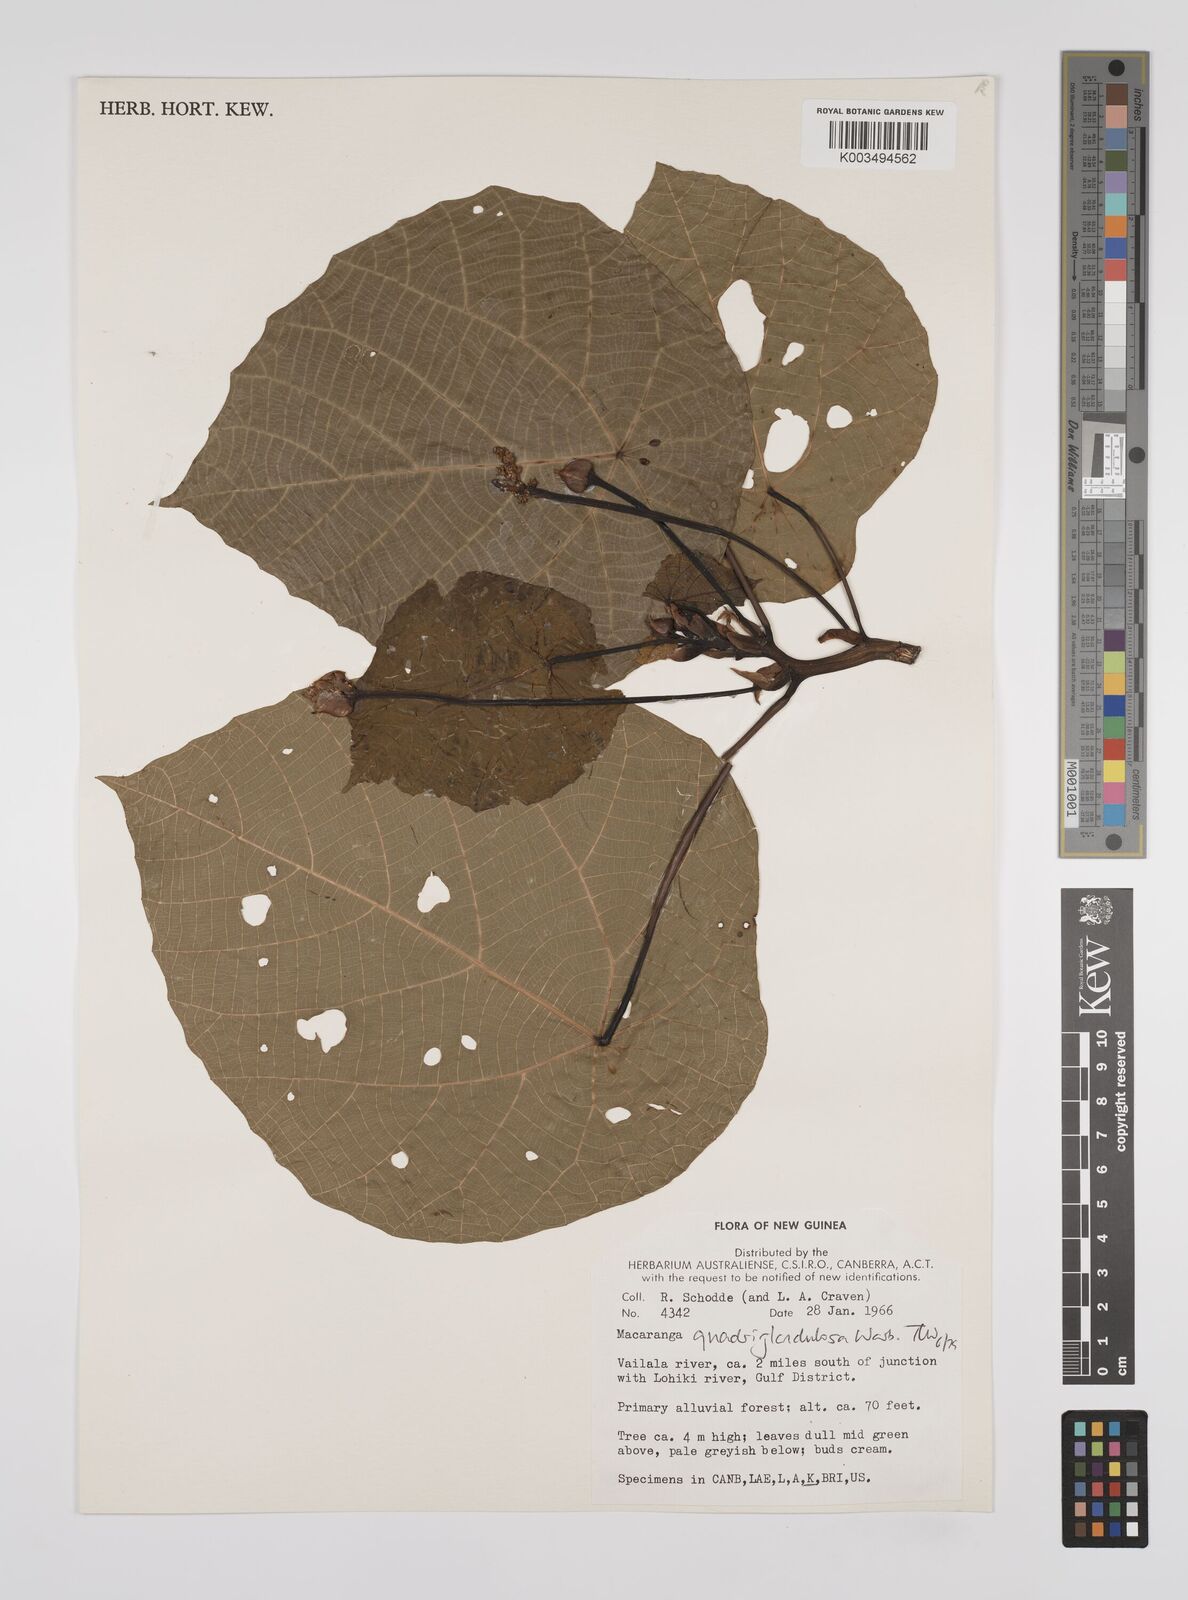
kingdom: Plantae
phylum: Tracheophyta
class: Magnoliopsida
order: Malpighiales
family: Euphorbiaceae
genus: Macaranga
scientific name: Macaranga quadriglandulosa
